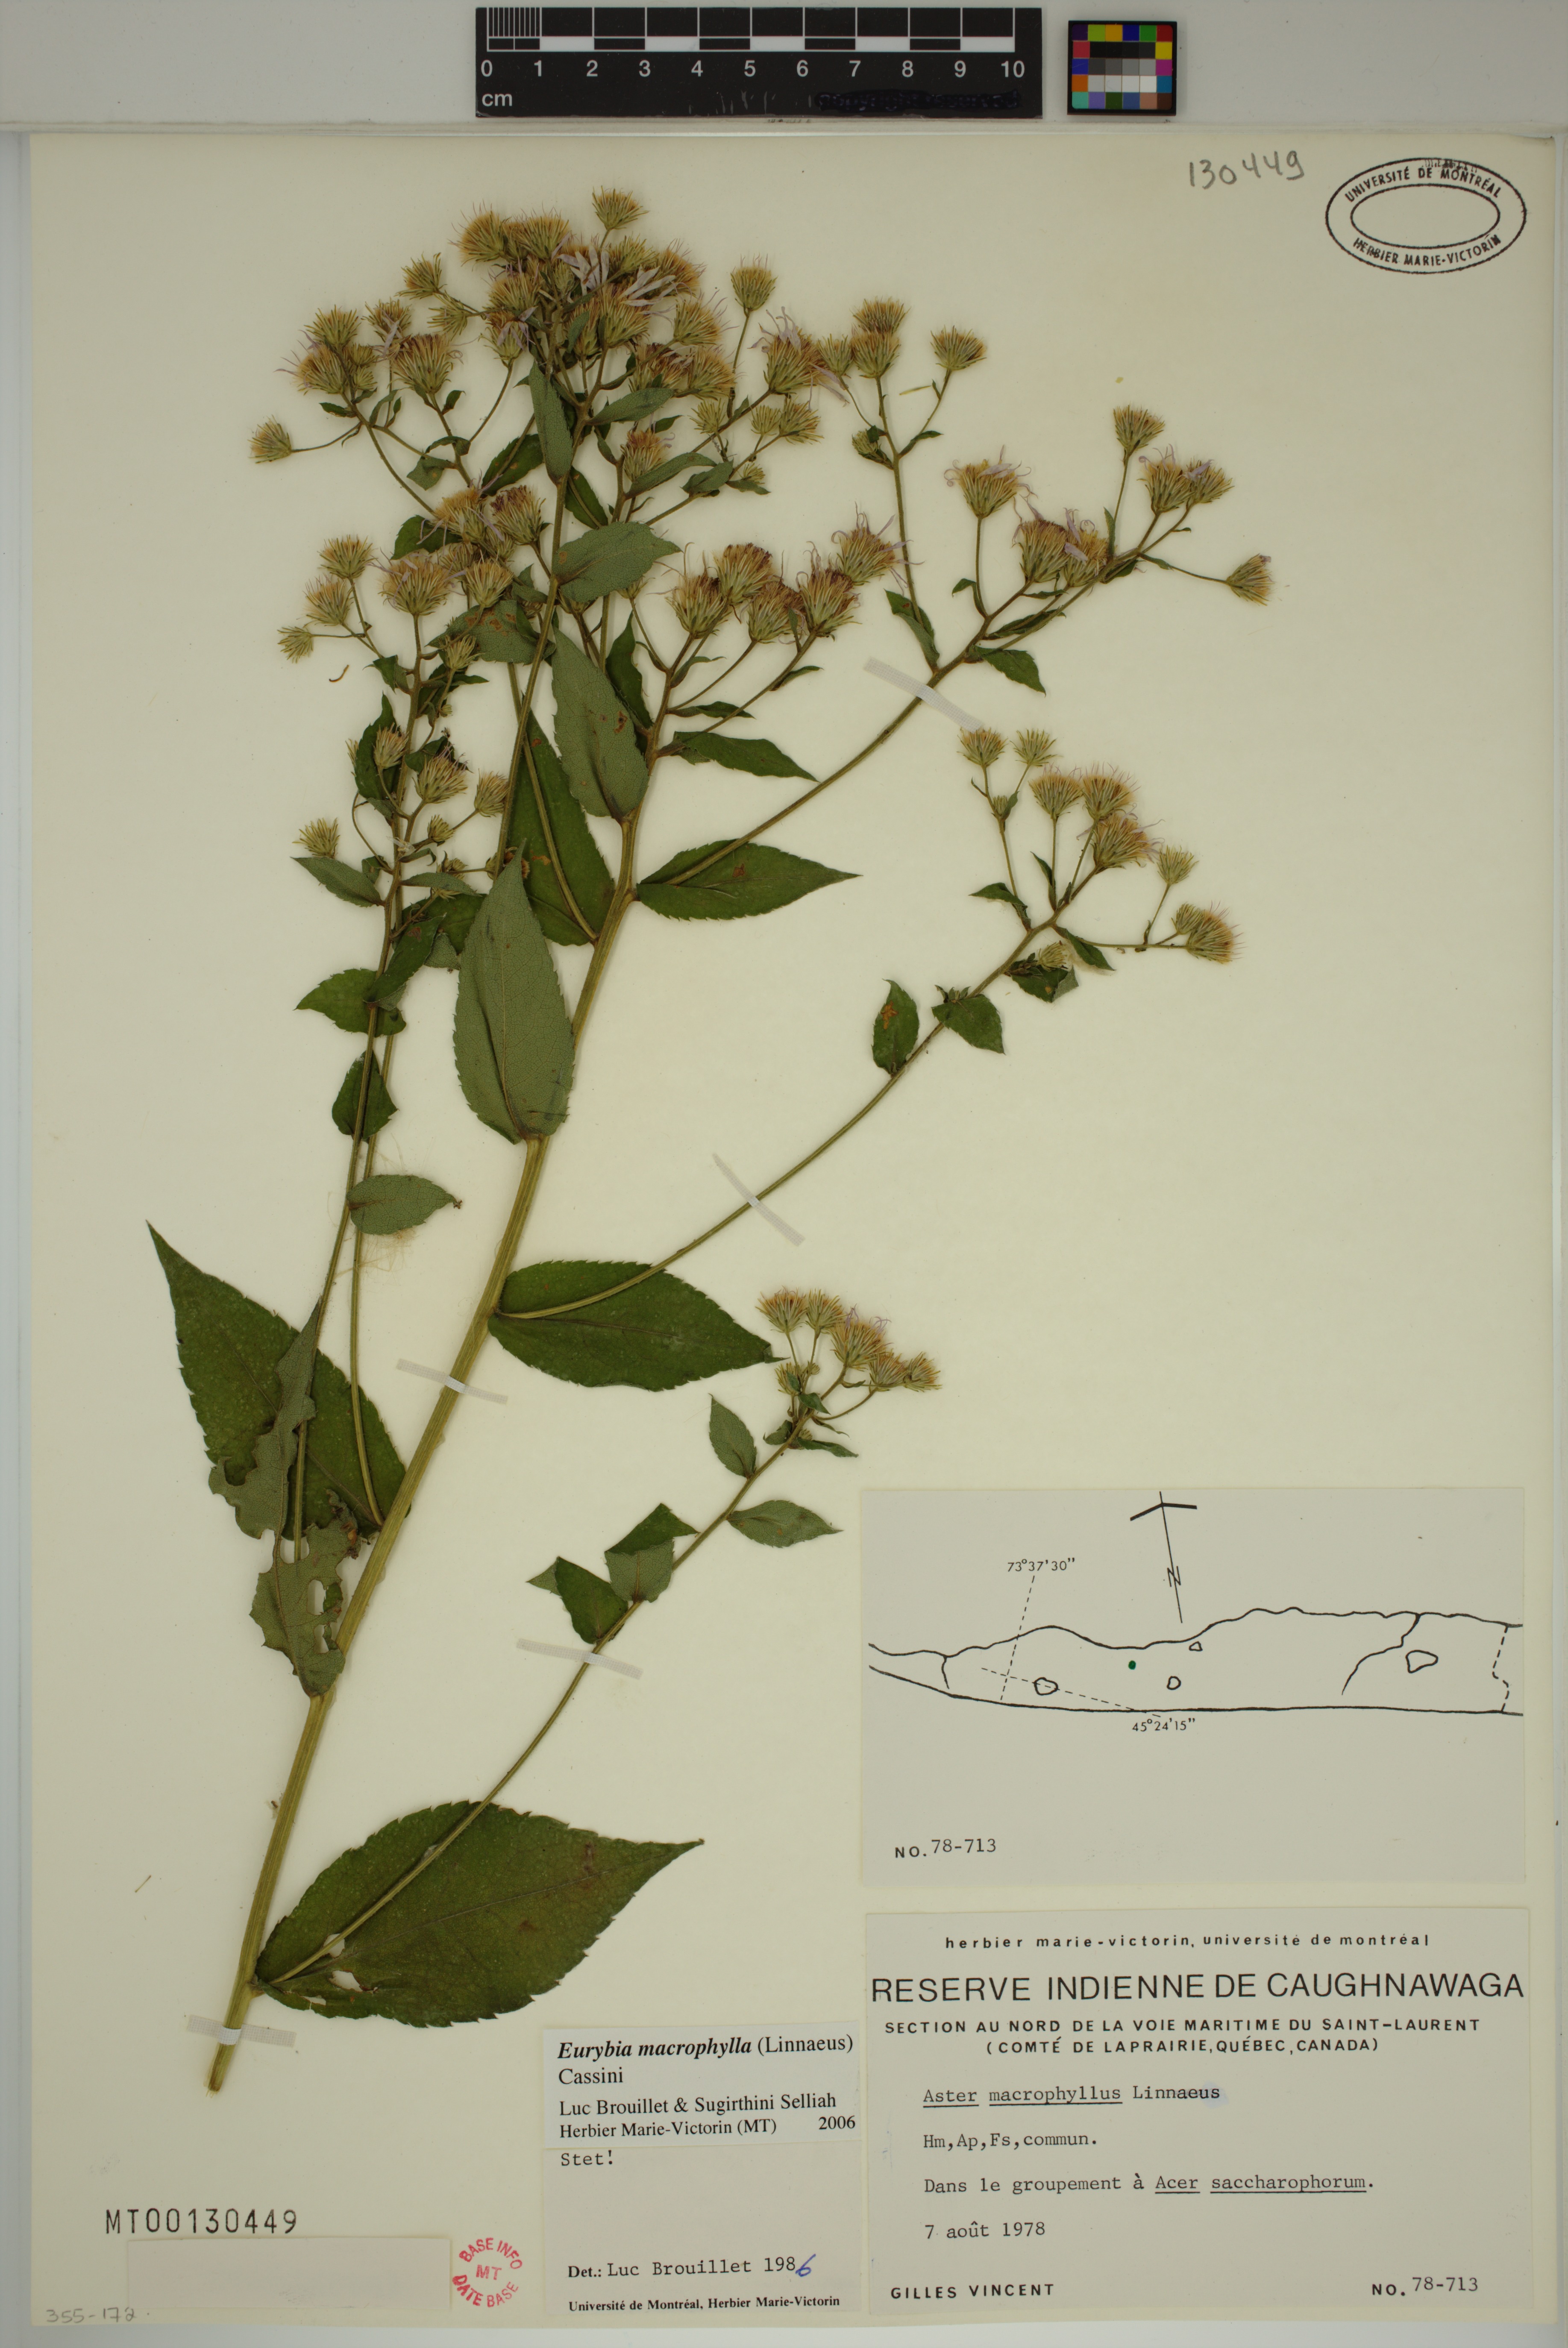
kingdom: Plantae
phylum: Tracheophyta
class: Magnoliopsida
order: Asterales
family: Asteraceae
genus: Eurybia
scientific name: Eurybia macrophylla
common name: Big-leaved aster
